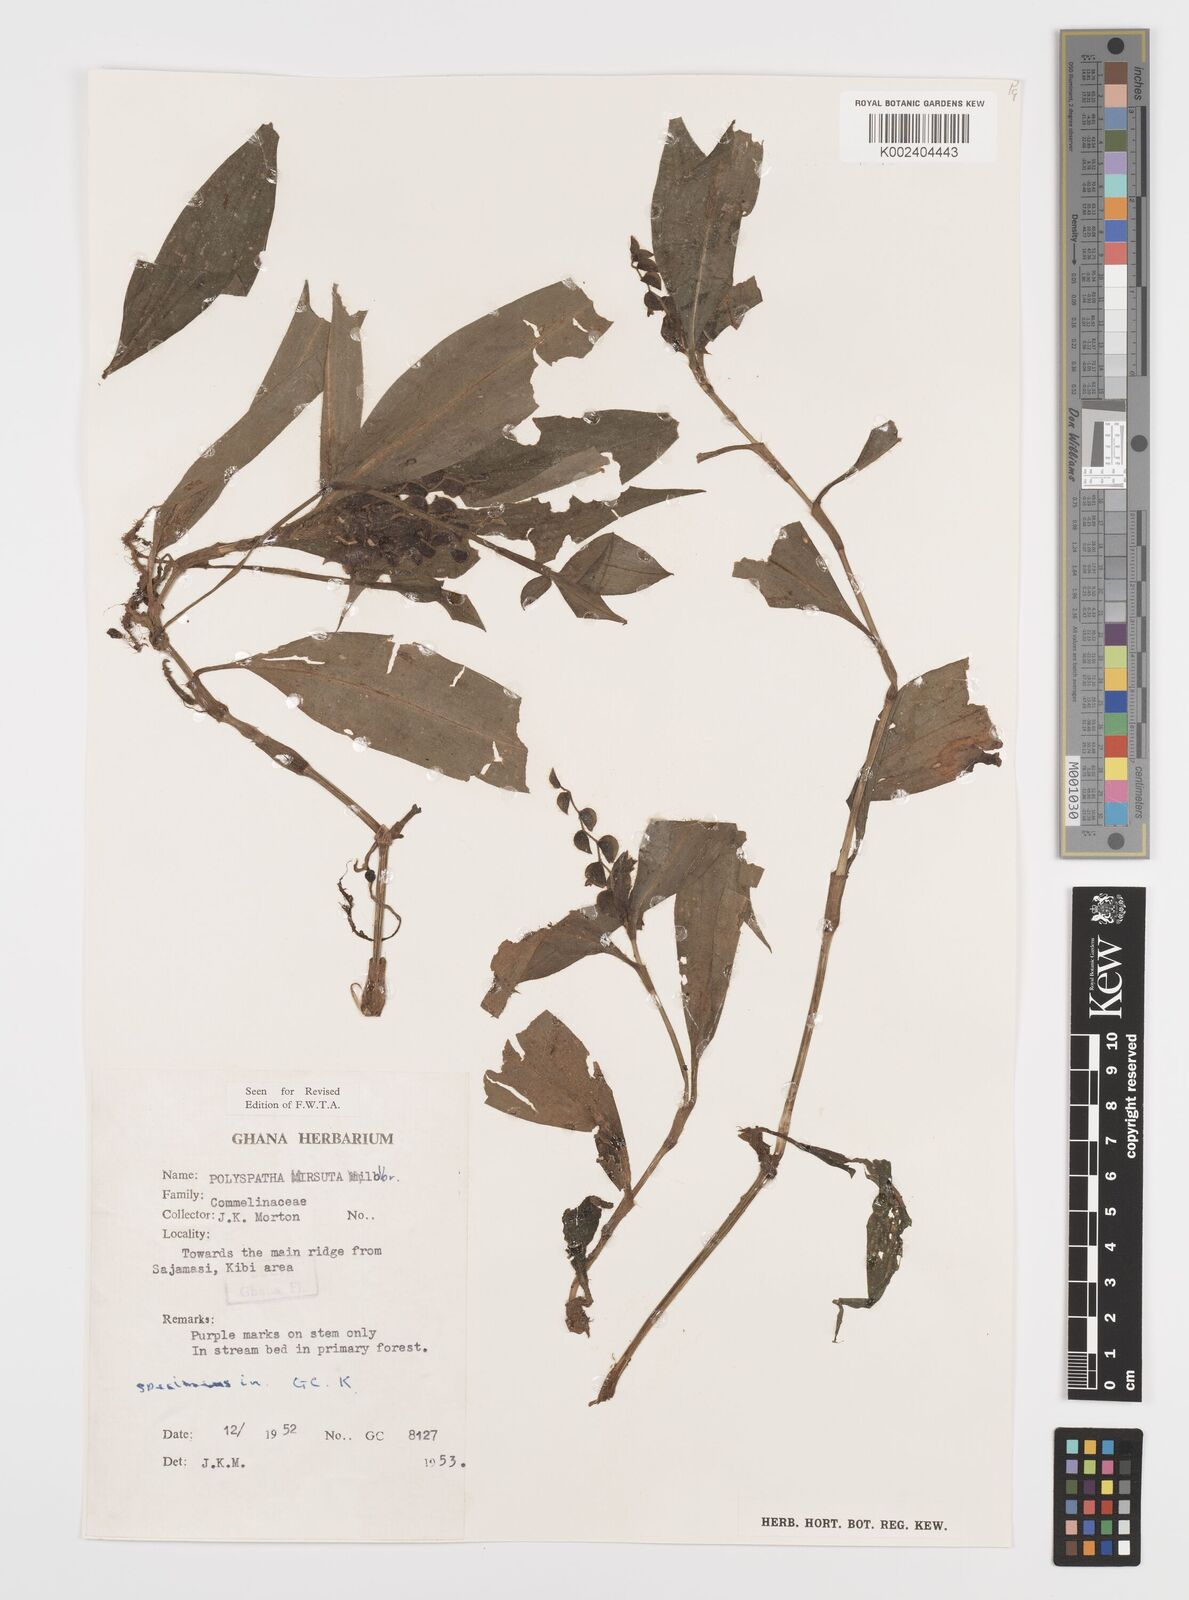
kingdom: Plantae
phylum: Tracheophyta
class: Liliopsida
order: Commelinales
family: Commelinaceae
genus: Polyspatha
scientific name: Polyspatha hirsuta
